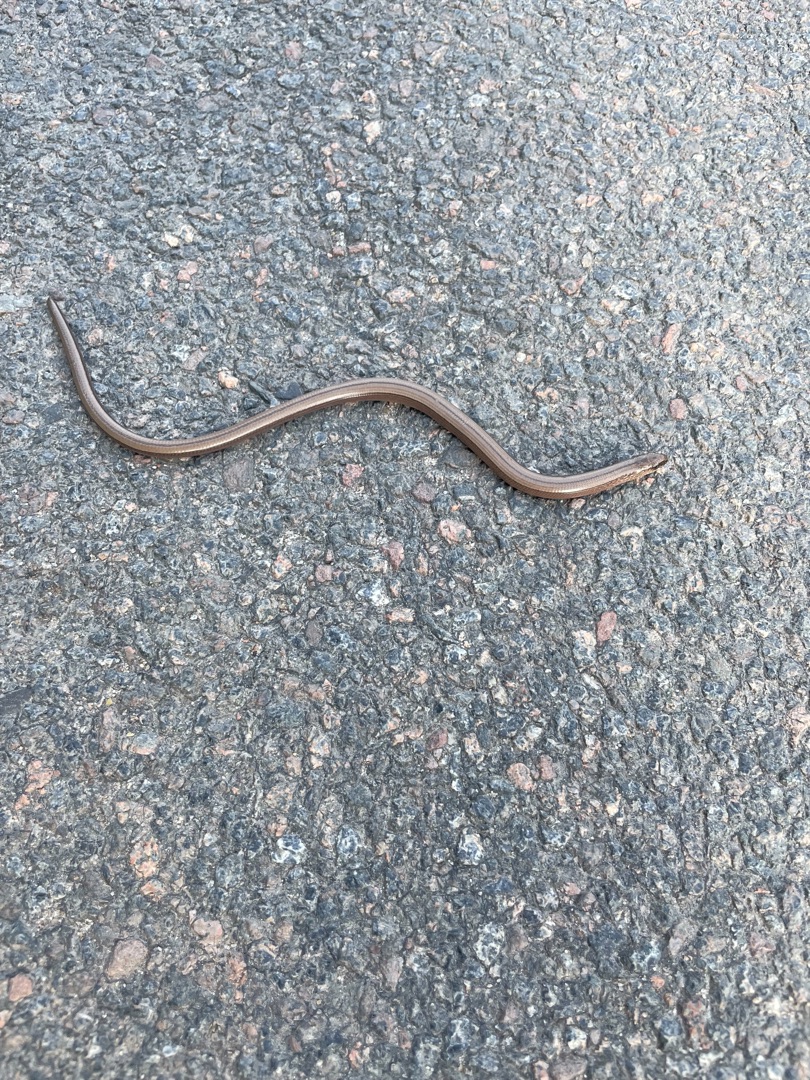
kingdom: Animalia
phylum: Chordata
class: Squamata
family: Anguidae
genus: Anguis
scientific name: Anguis fragilis
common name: Stålorm
